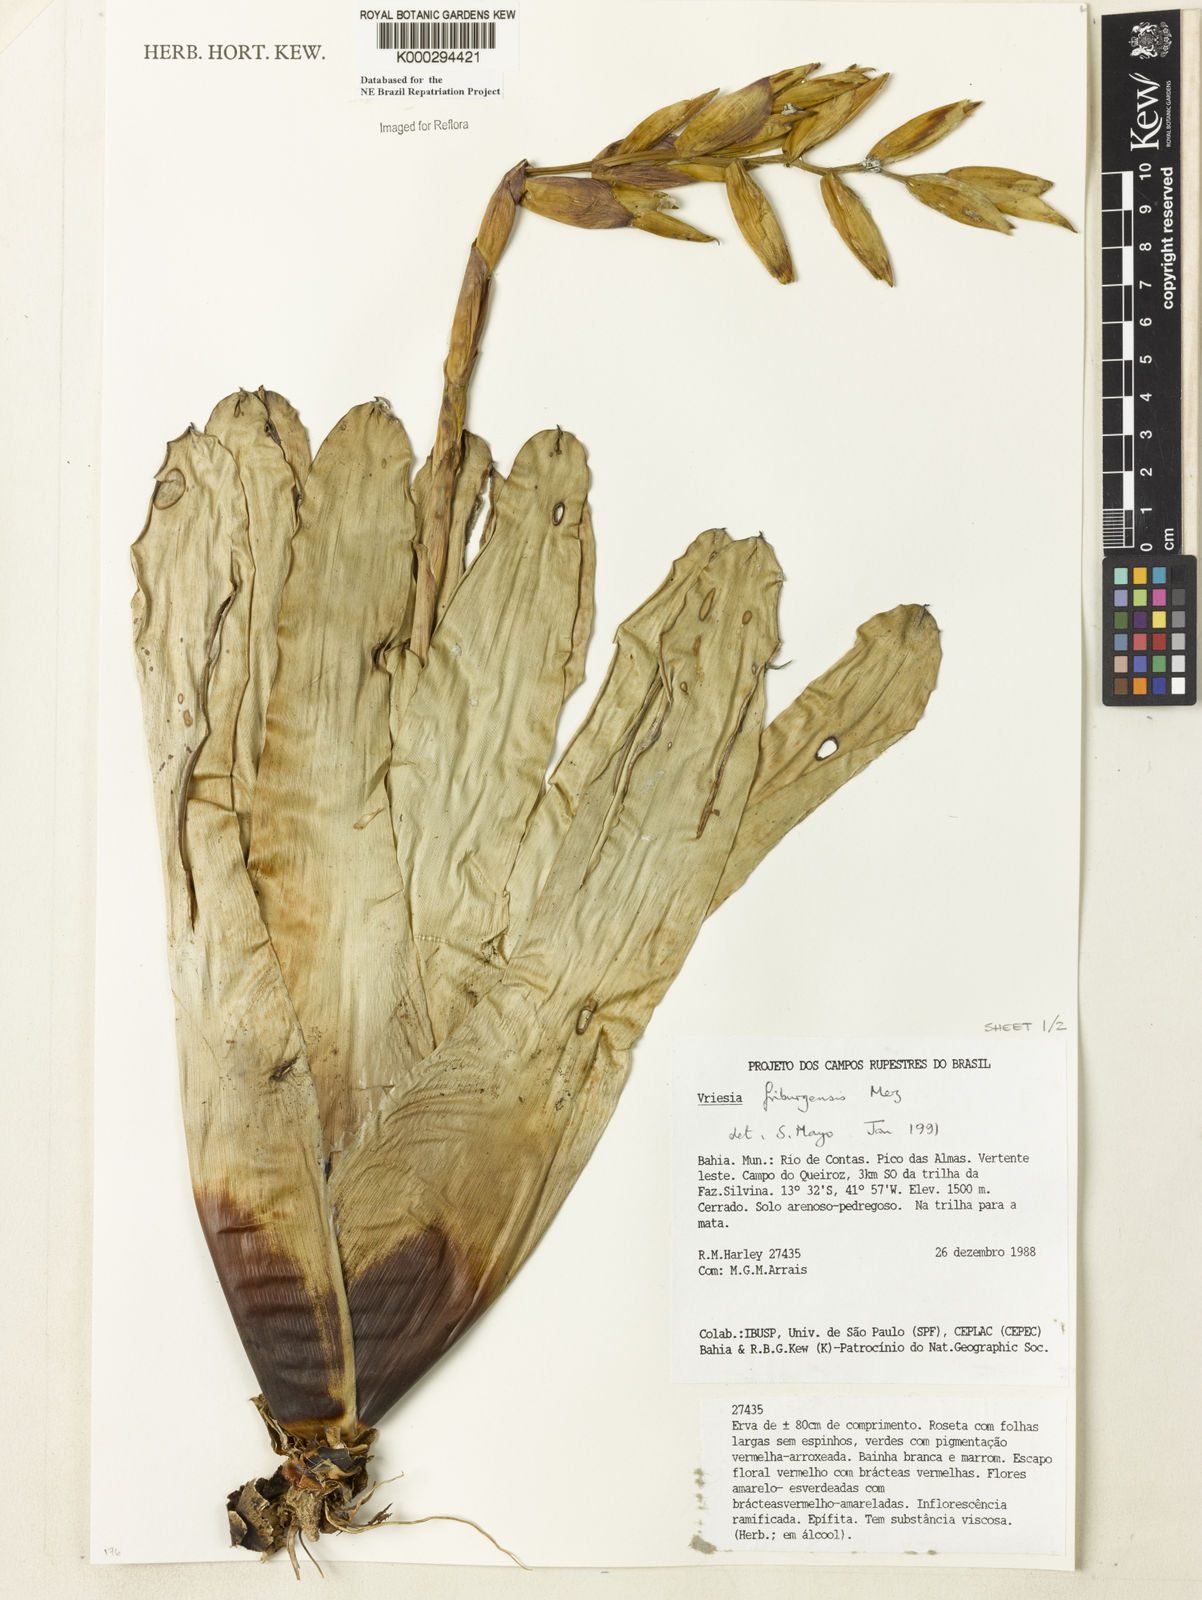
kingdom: Plantae
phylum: Tracheophyta
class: Liliopsida
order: Poales
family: Bromeliaceae
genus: Vriesea
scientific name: Vriesea friburgensis
